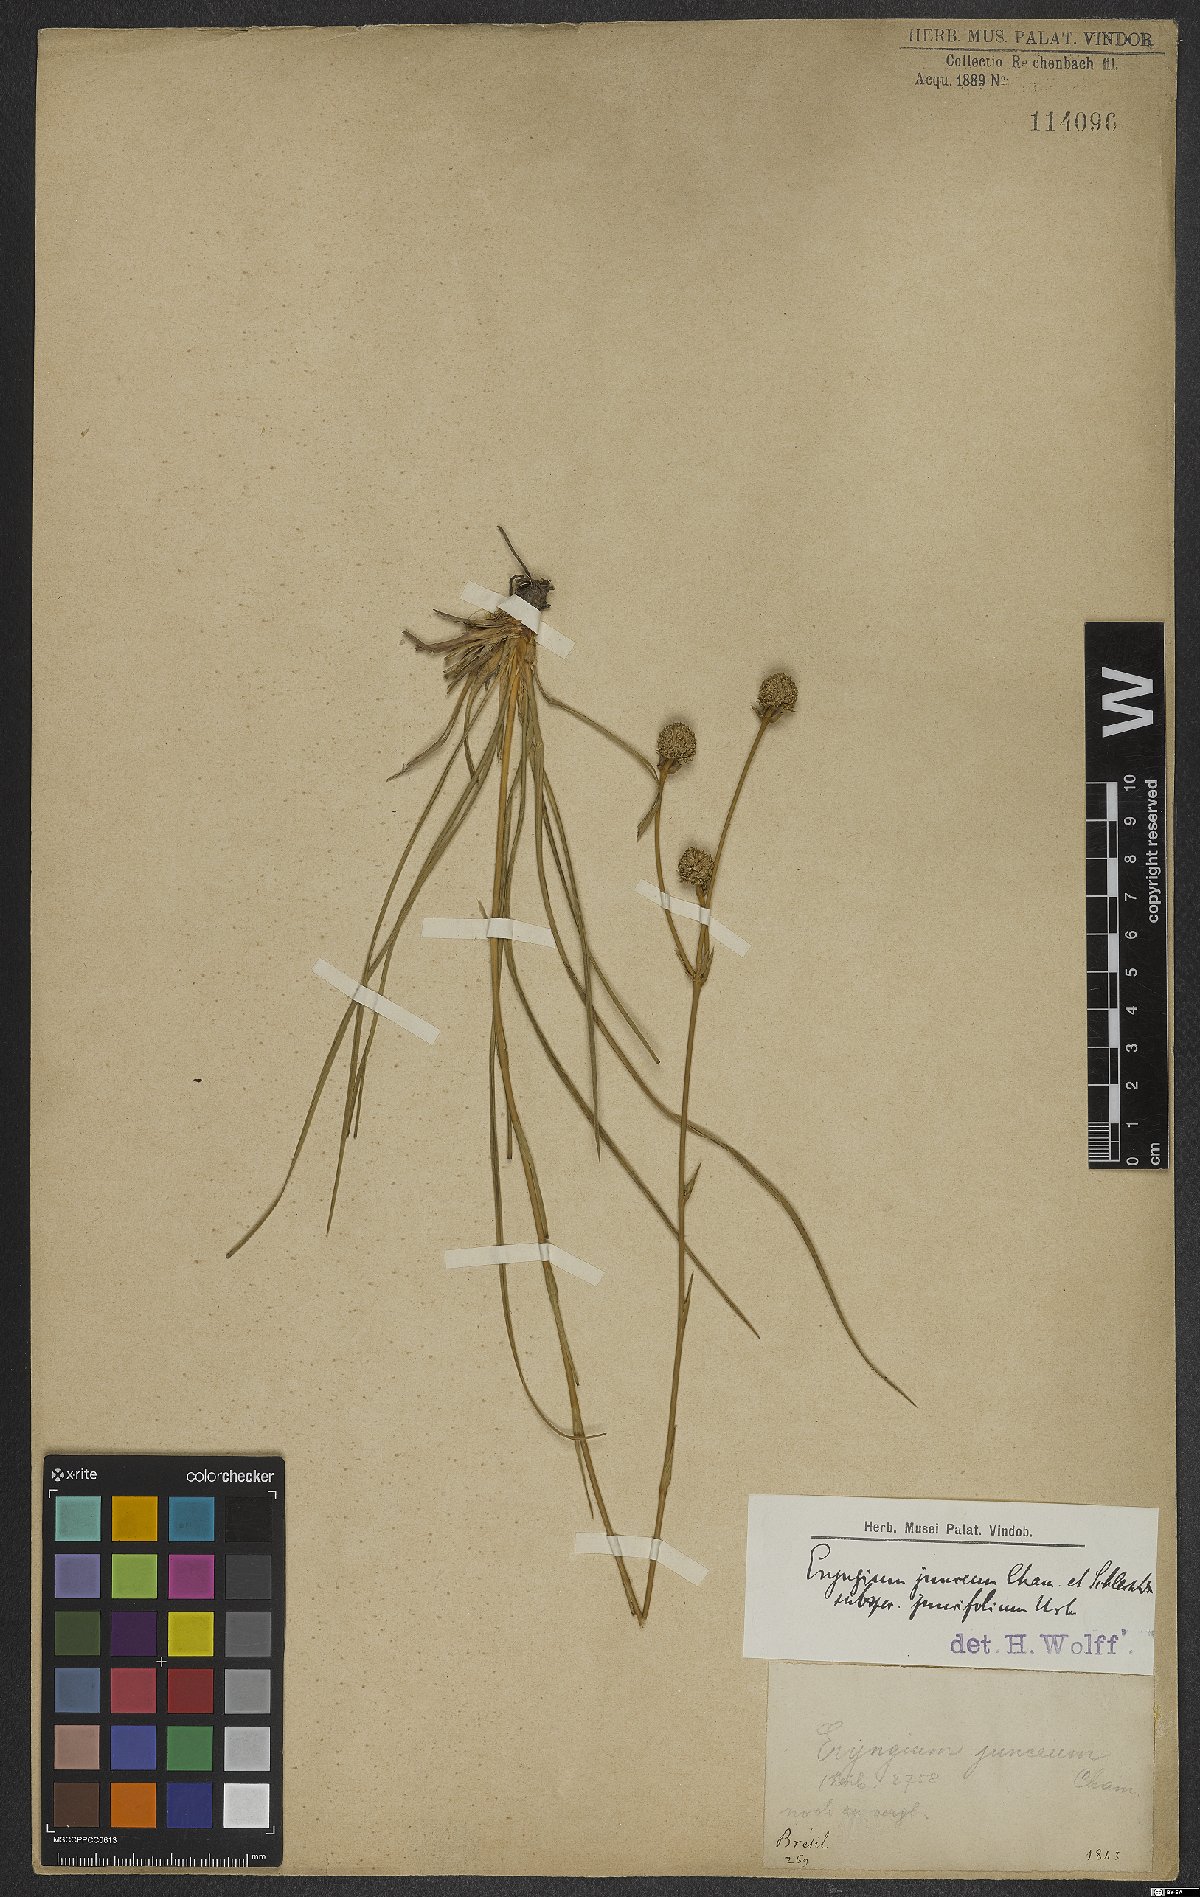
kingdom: Plantae
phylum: Tracheophyta
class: Magnoliopsida
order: Apiales
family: Apiaceae
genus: Eryngium
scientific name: Eryngium juncifolium
